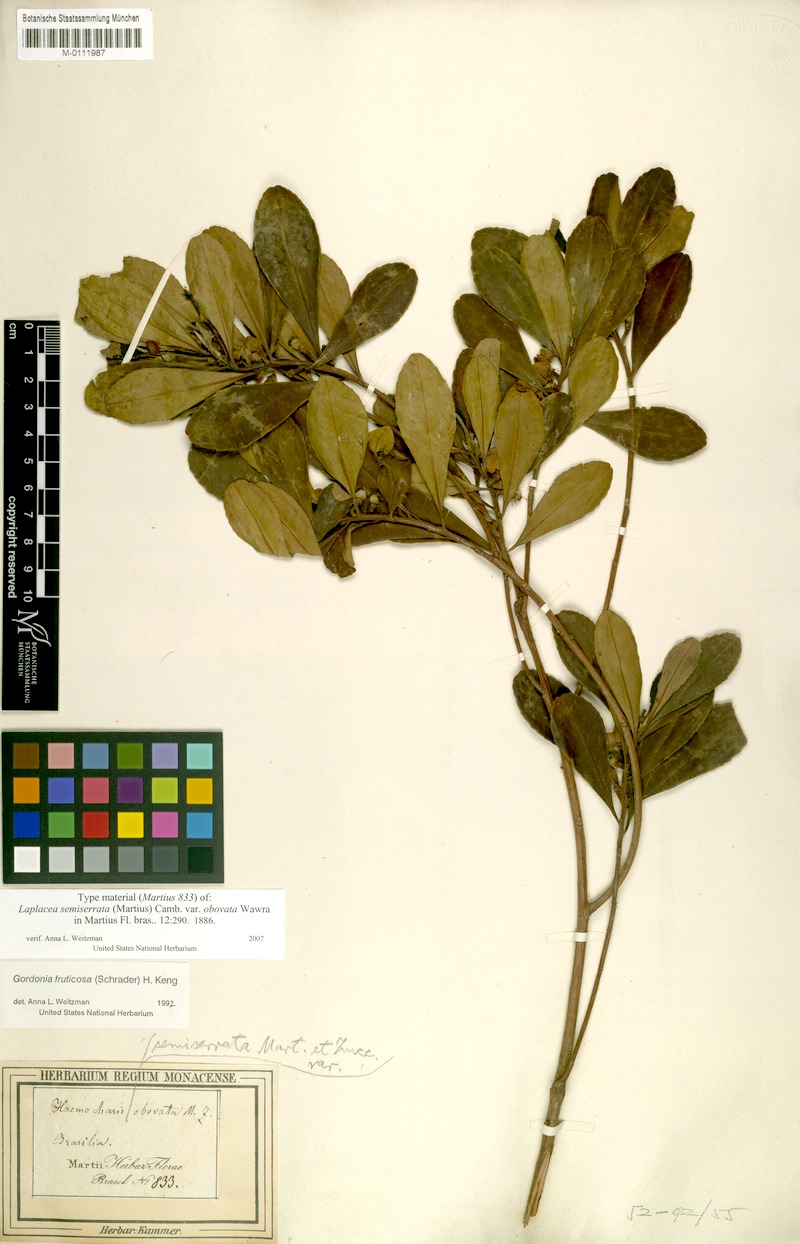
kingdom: Plantae
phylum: Tracheophyta
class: Magnoliopsida
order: Ericales
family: Theaceae
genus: Gordonia
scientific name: Gordonia fruticosa
